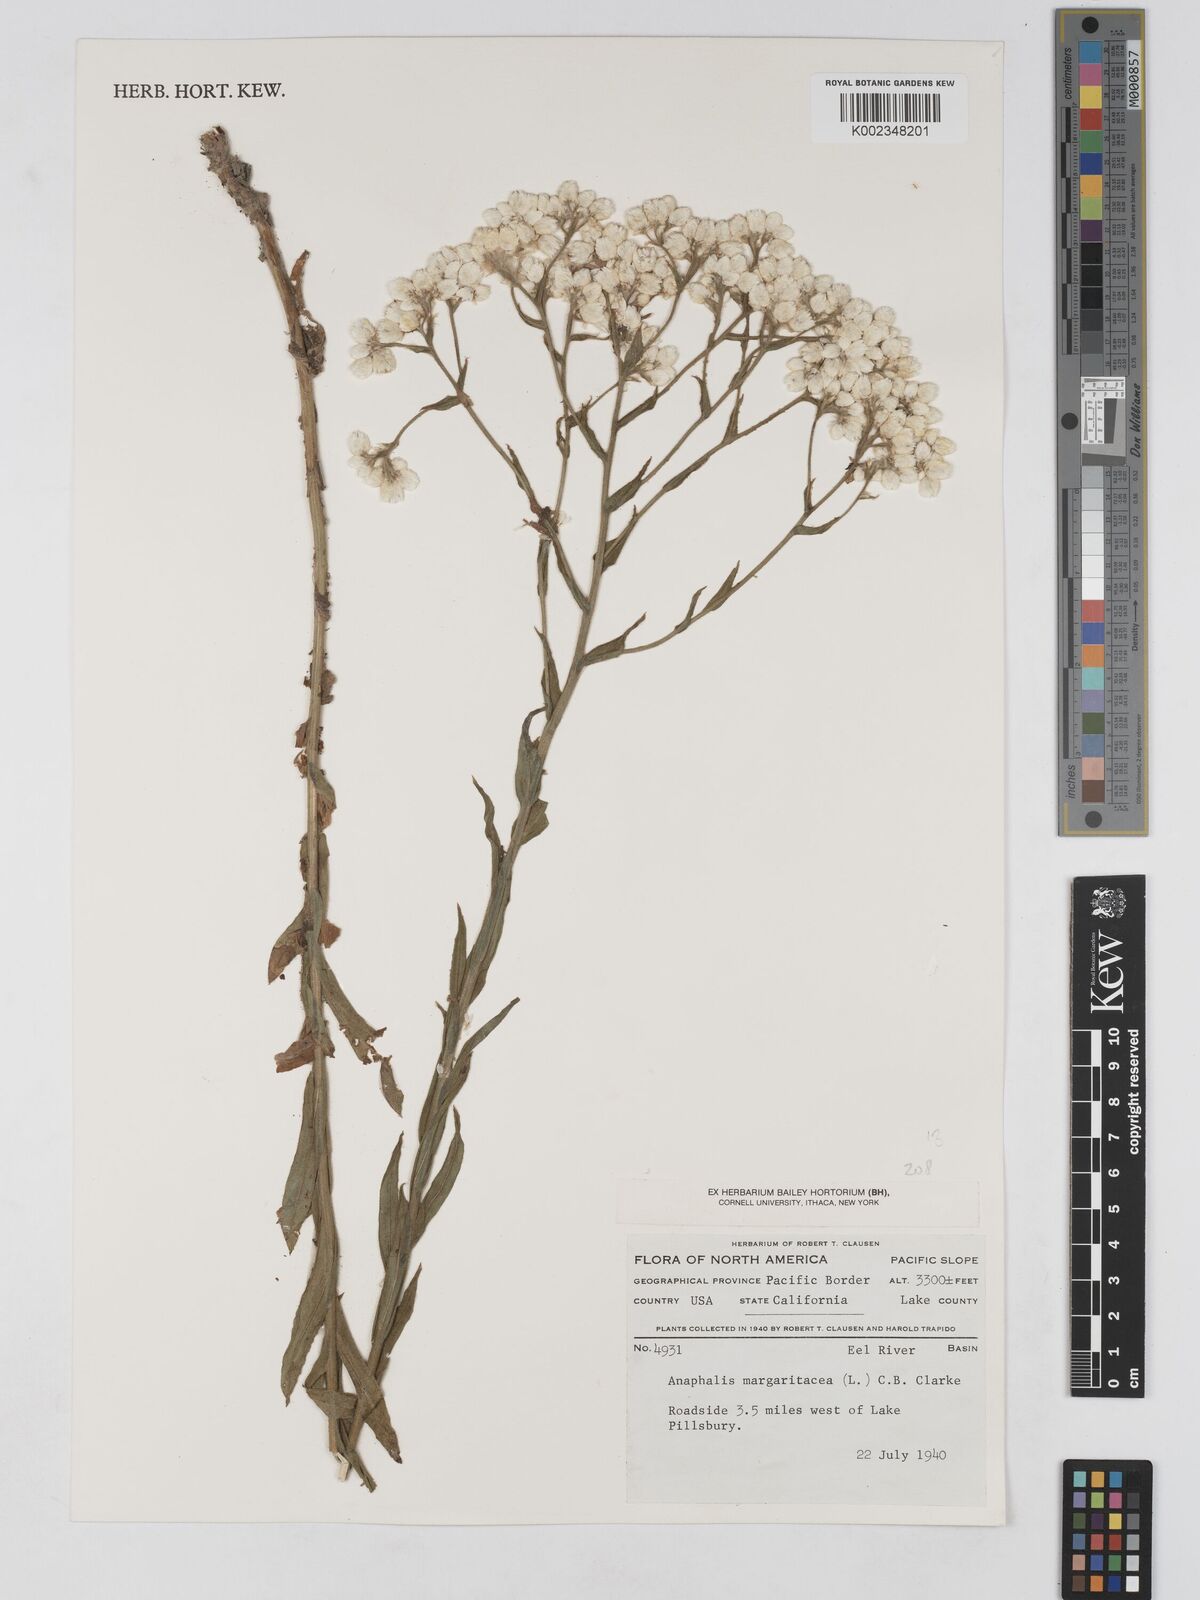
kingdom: Plantae
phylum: Tracheophyta
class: Magnoliopsida
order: Asterales
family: Asteraceae
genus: Anaphalis
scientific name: Anaphalis
